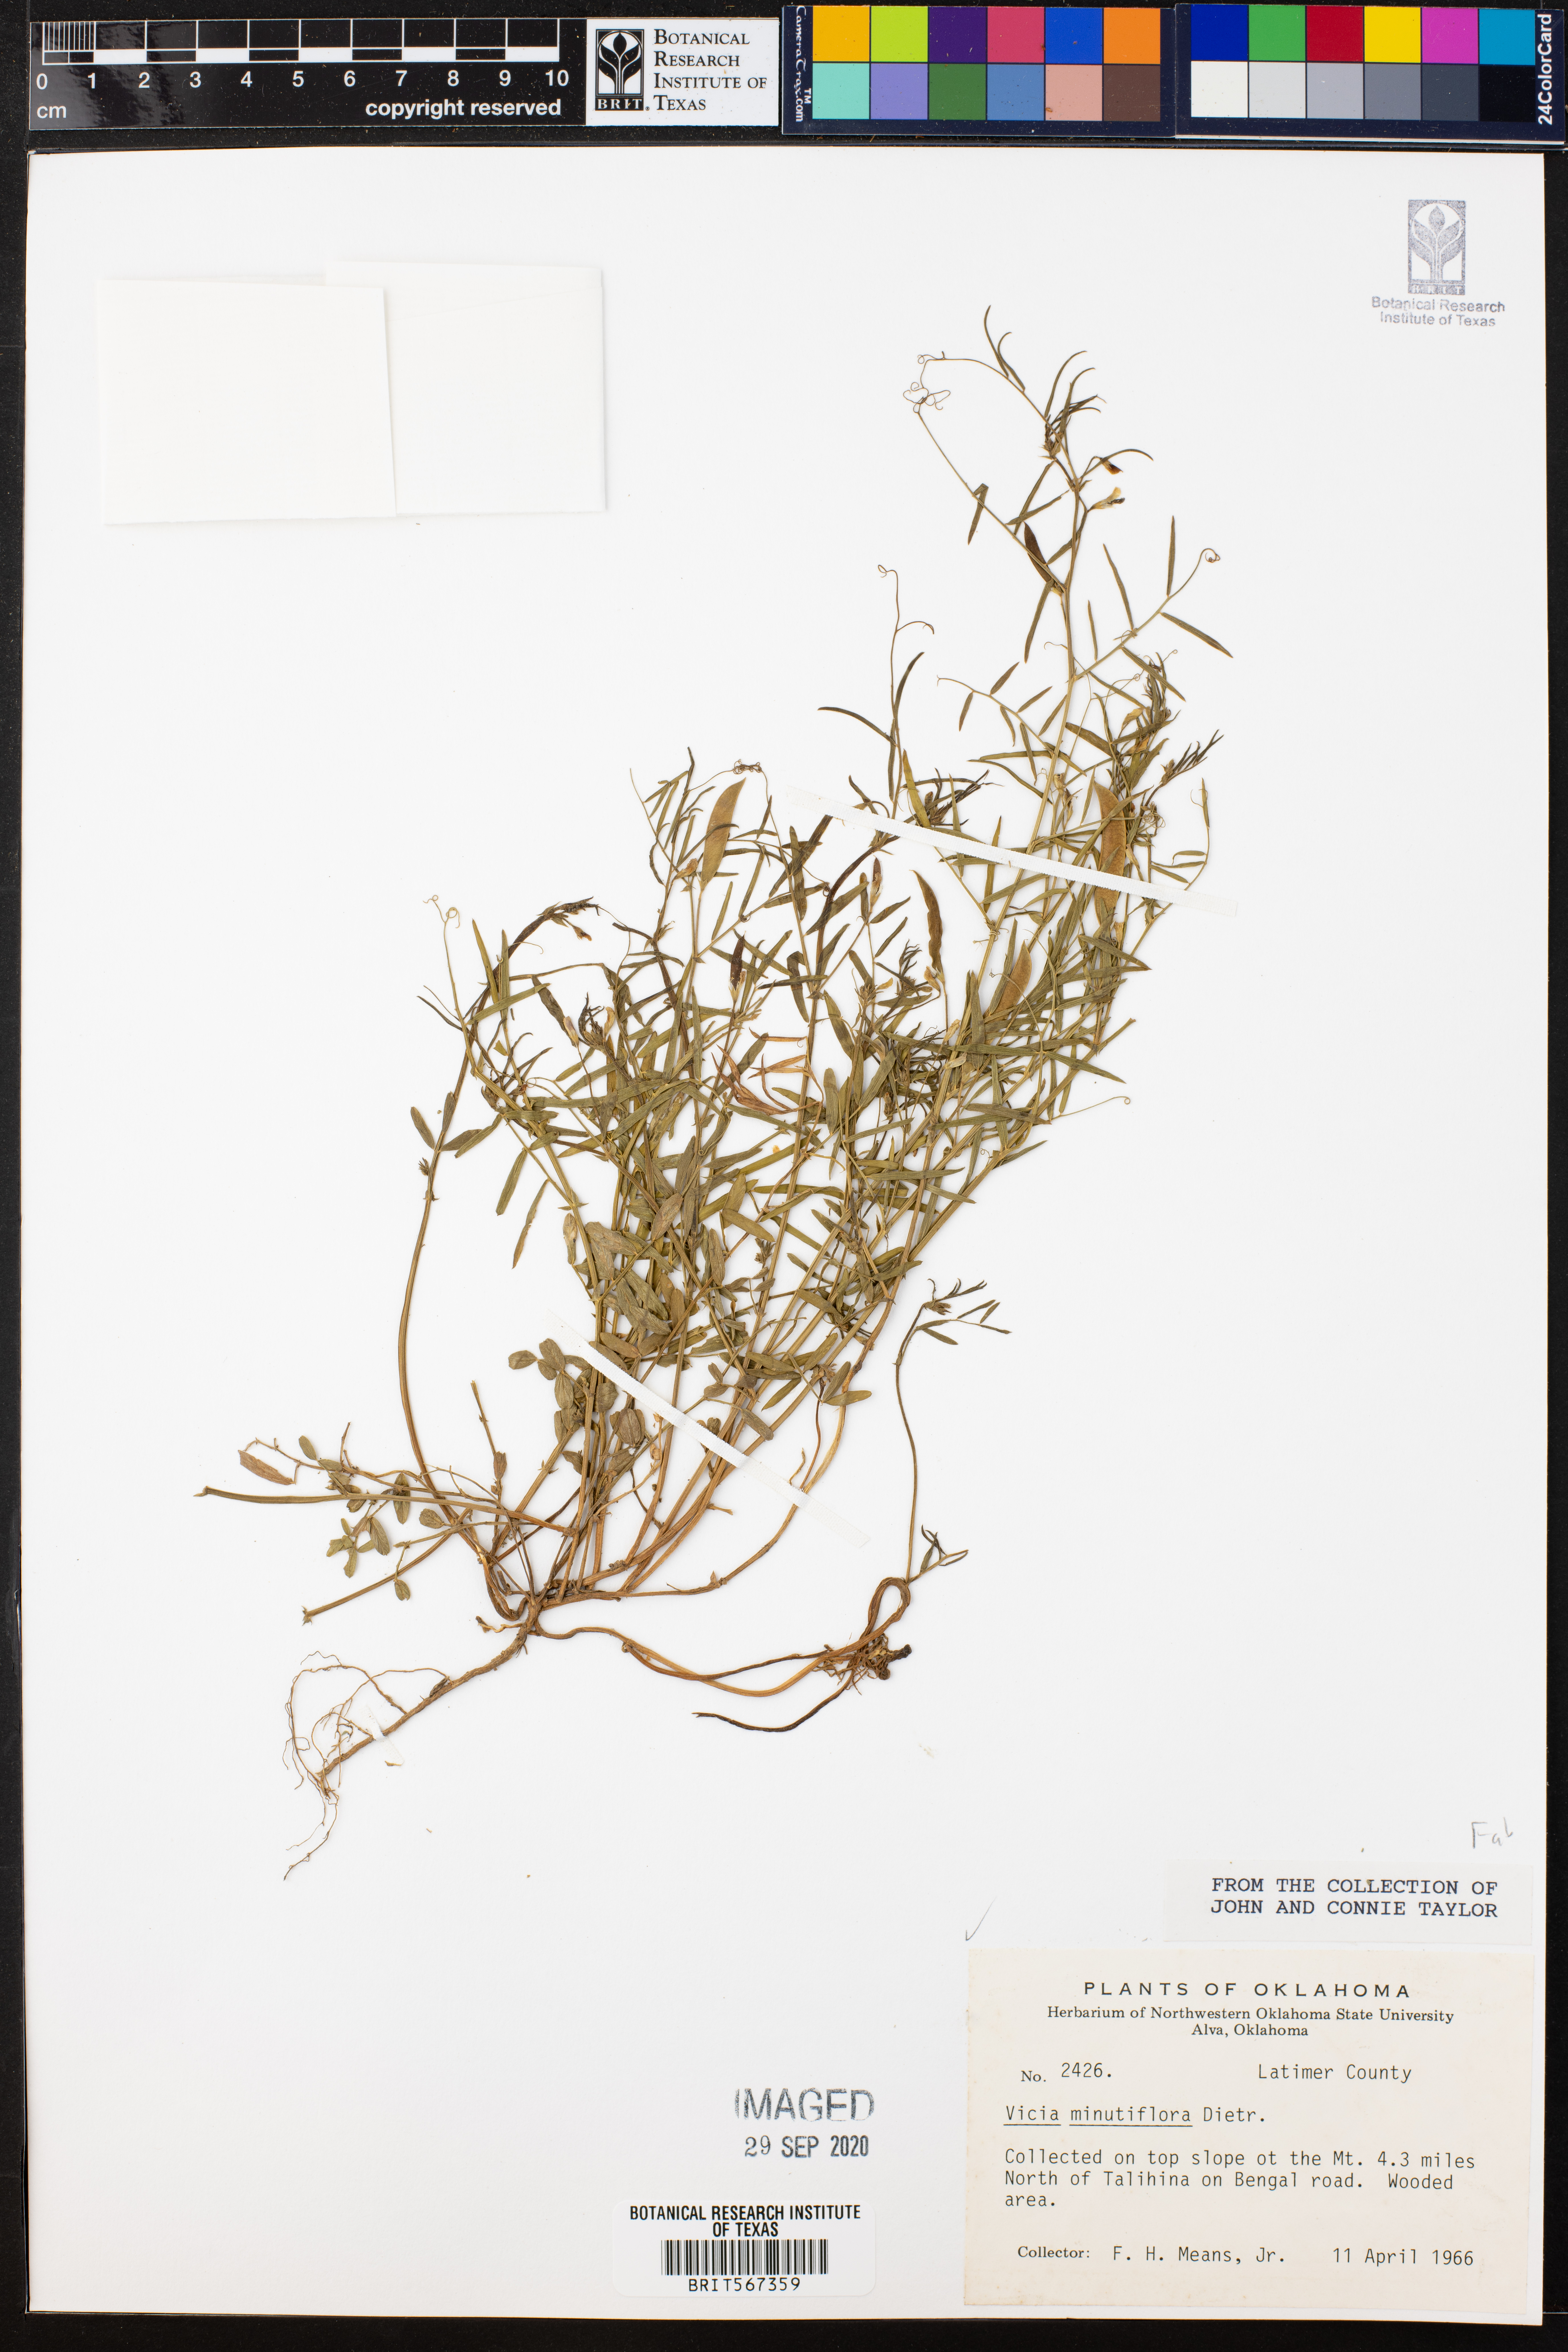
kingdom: Plantae
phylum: Tracheophyta
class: Magnoliopsida
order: Fabales
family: Fabaceae
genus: Vicia
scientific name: Vicia minutiflora
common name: Pygmy-flower vetch
